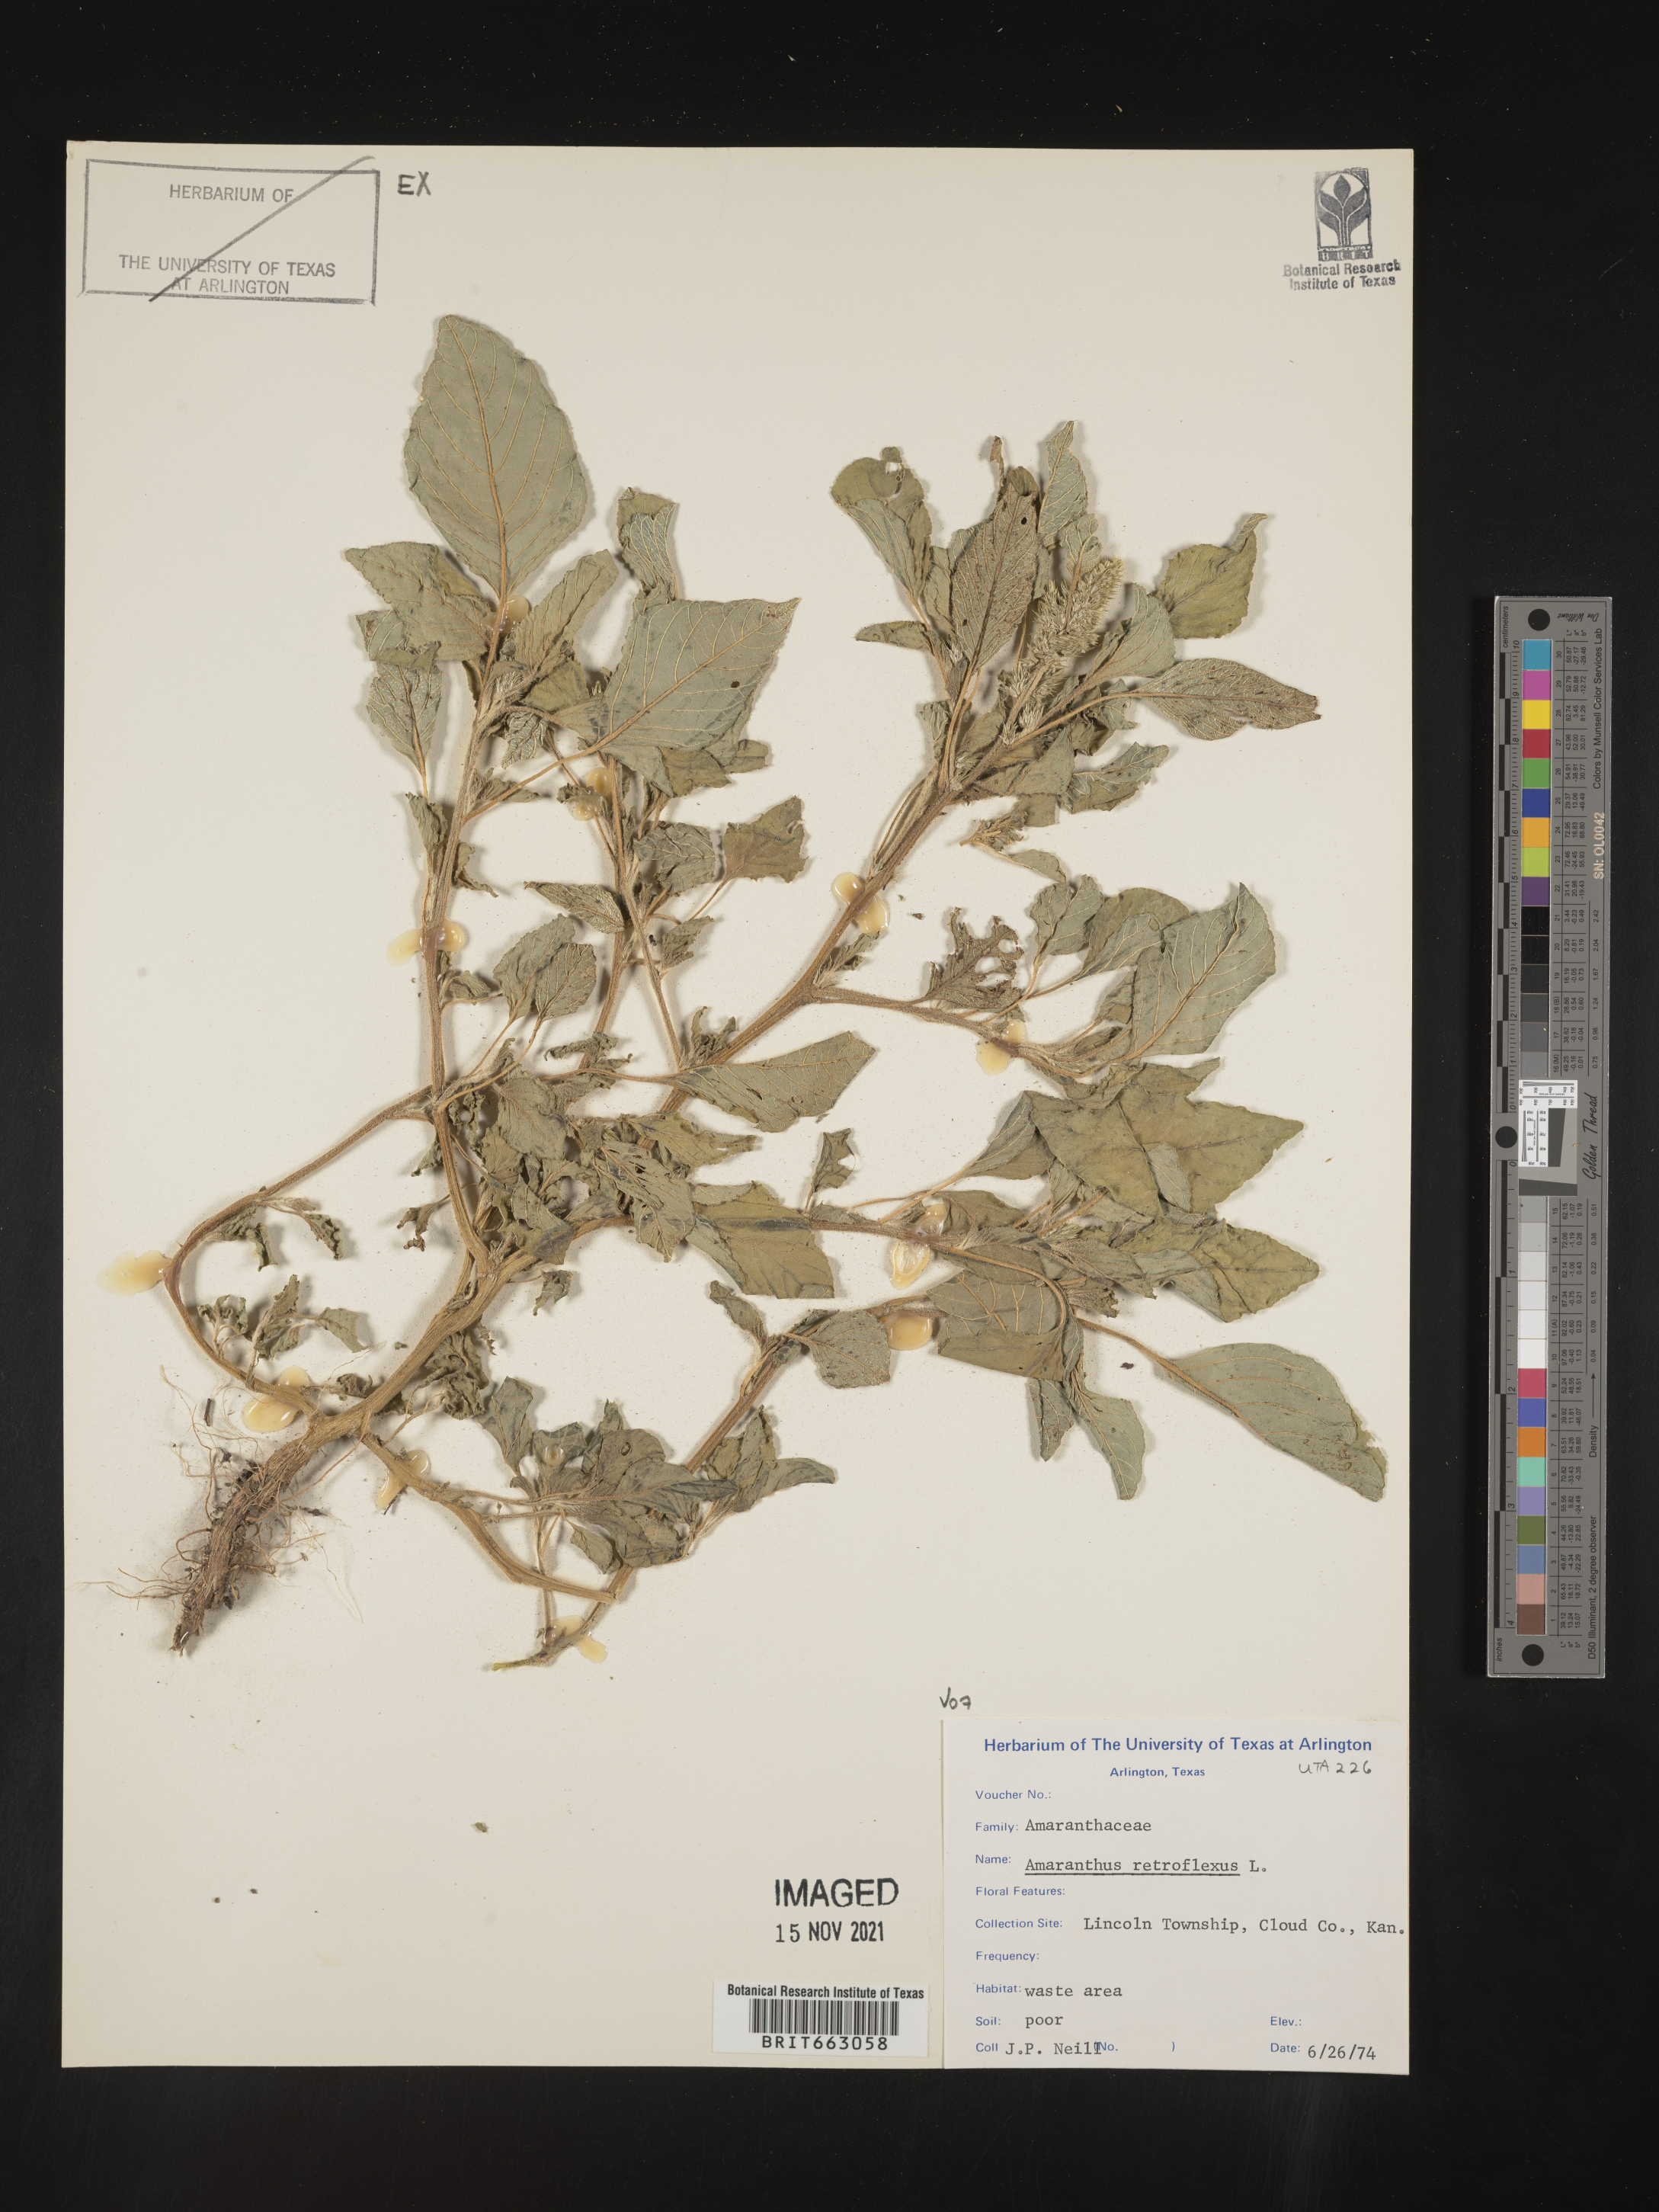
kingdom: Plantae
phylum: Tracheophyta
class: Magnoliopsida
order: Caryophyllales
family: Amaranthaceae
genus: Amaranthus
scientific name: Amaranthus retroflexus
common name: Redroot amaranth
